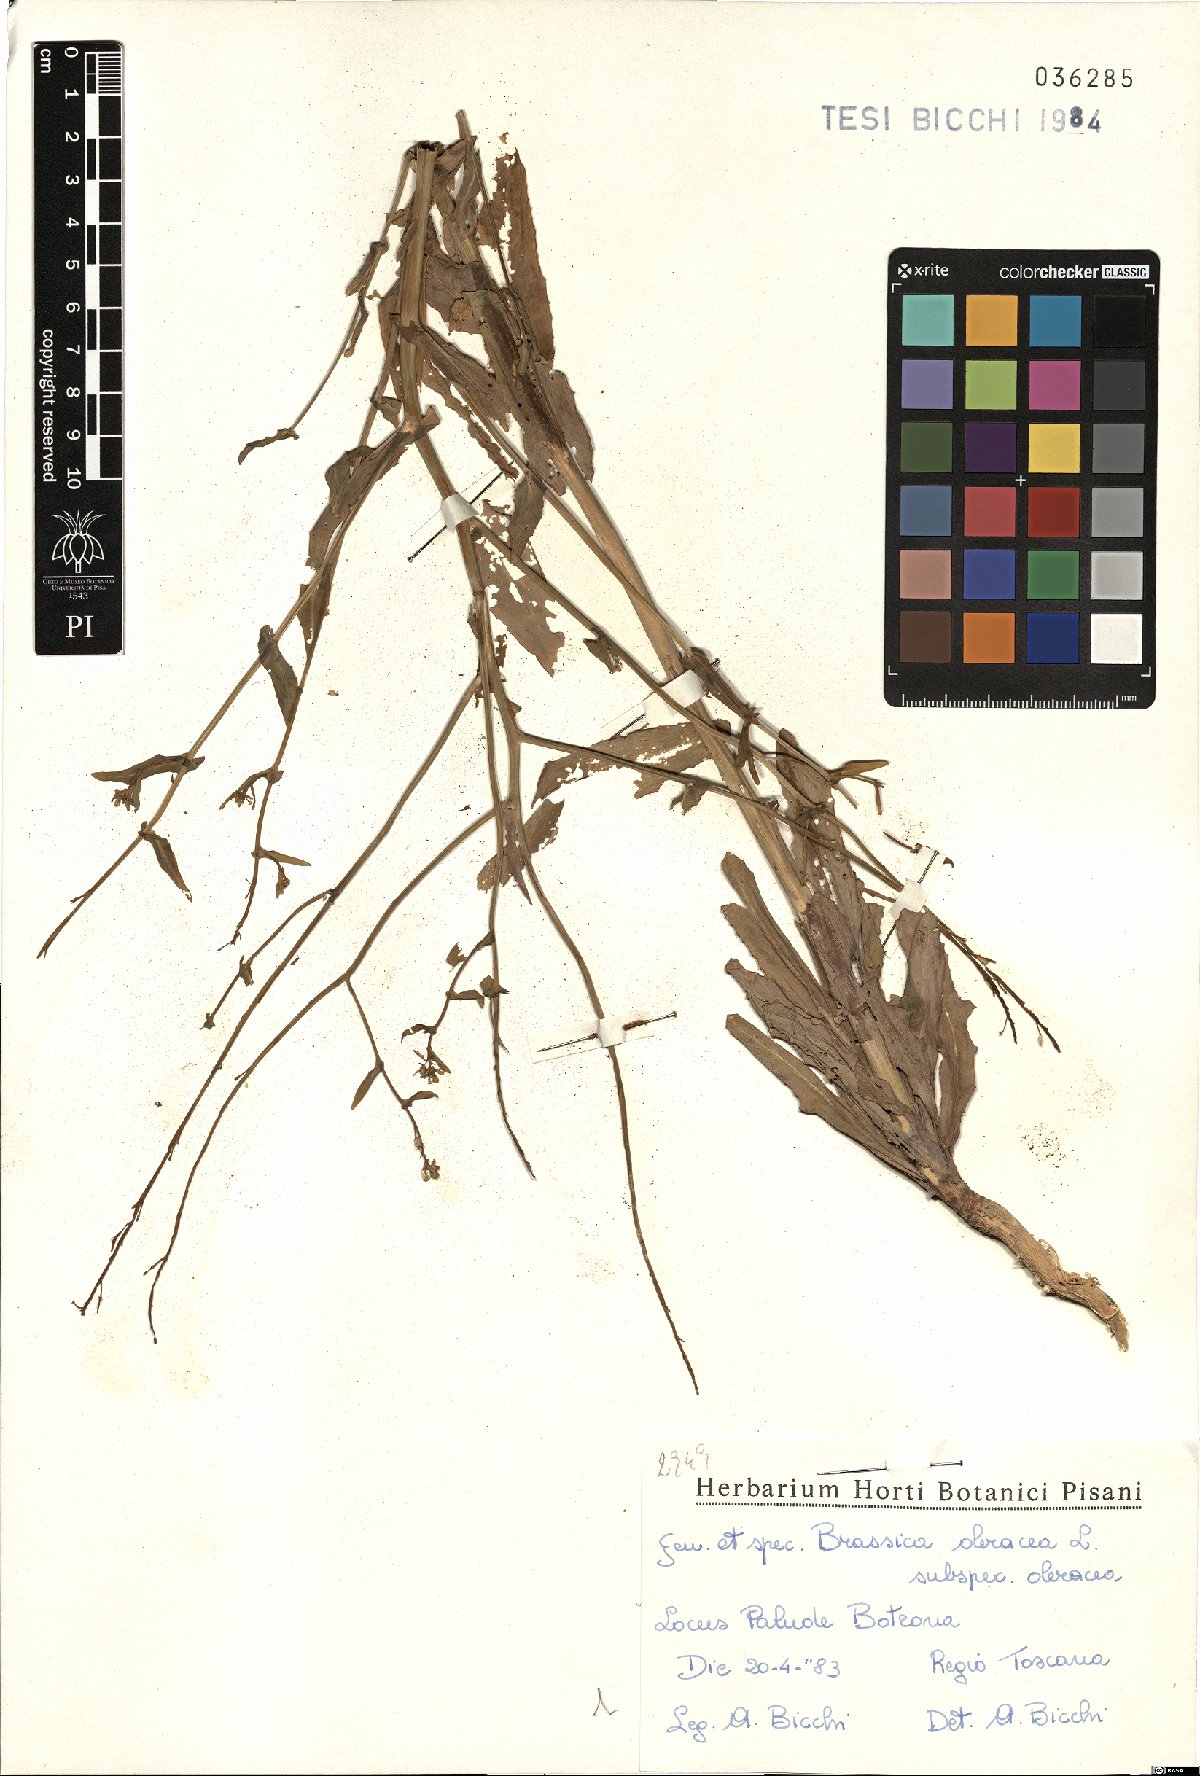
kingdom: Plantae
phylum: Tracheophyta
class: Magnoliopsida
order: Brassicales
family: Brassicaceae
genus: Brassica
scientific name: Brassica oleracea
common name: Cabbage
